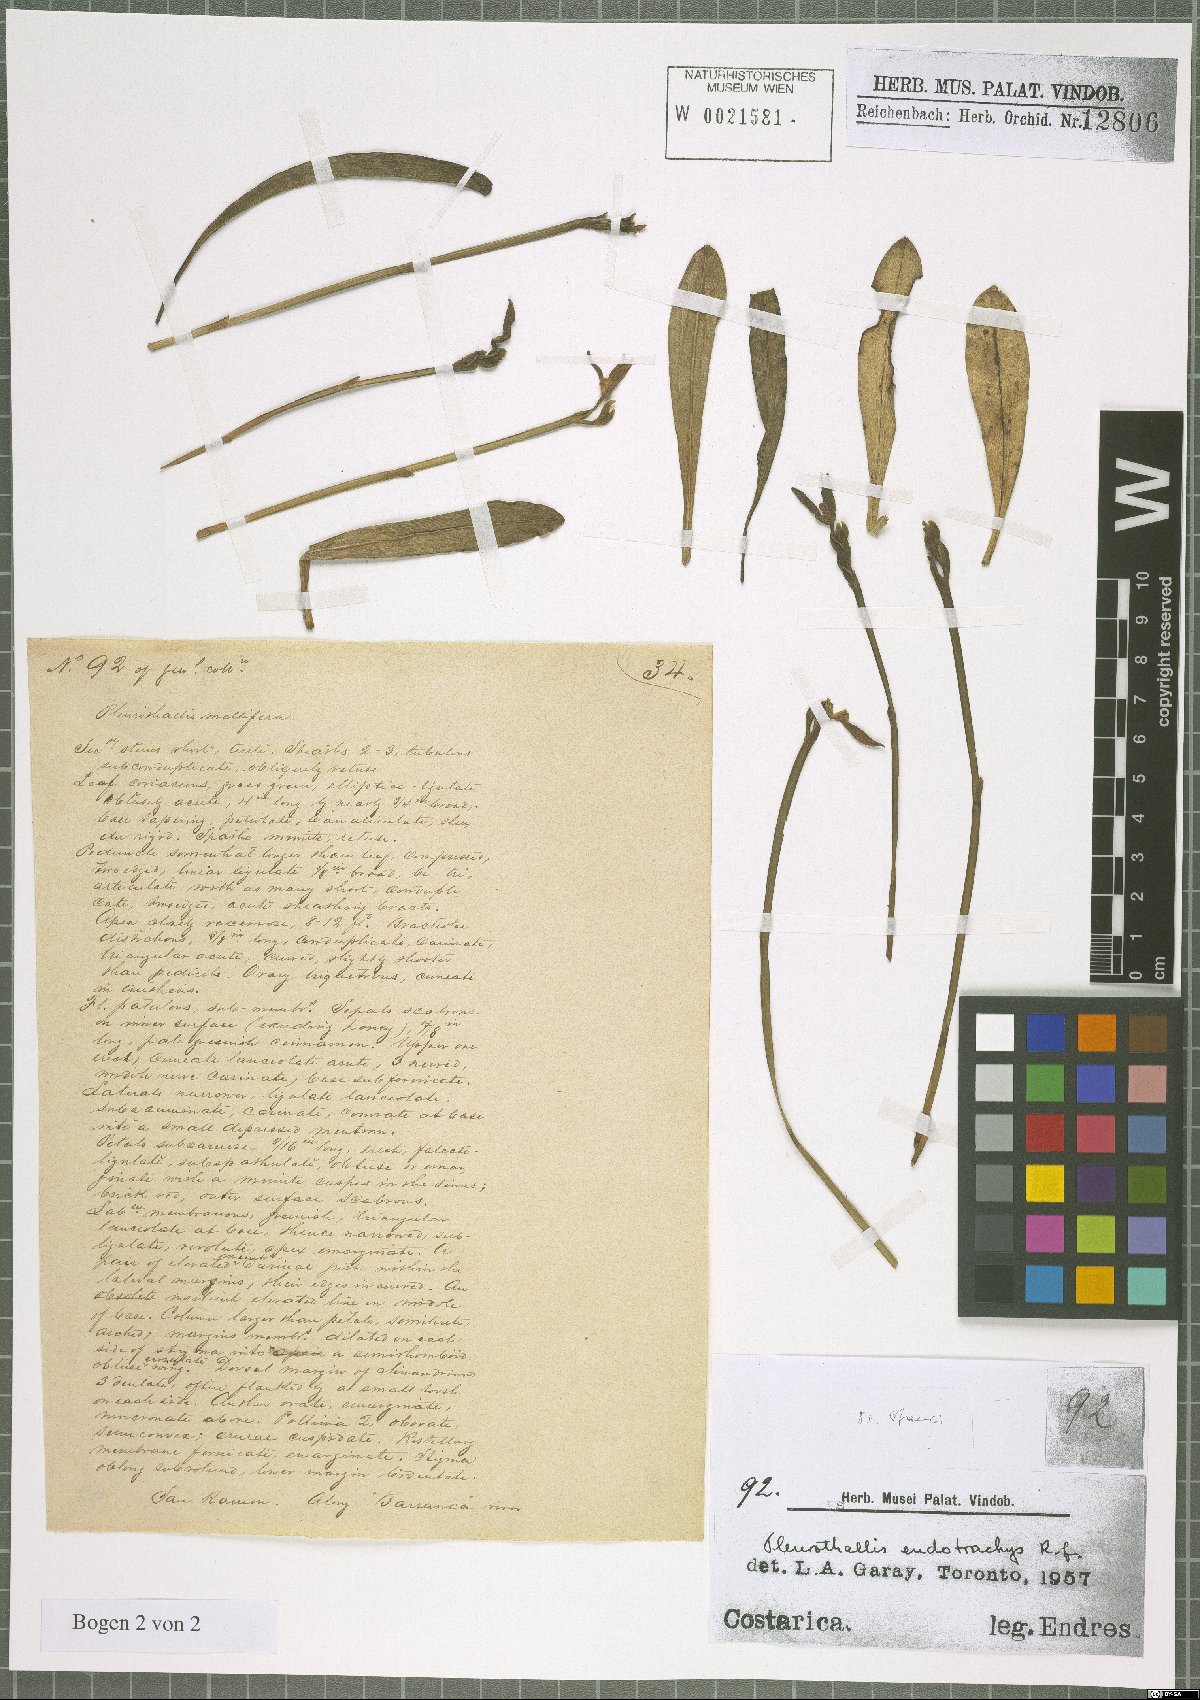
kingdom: Plantae
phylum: Tracheophyta
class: Liliopsida
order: Asparagales
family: Orchidaceae
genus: Specklinia
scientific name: Specklinia endotrachys
